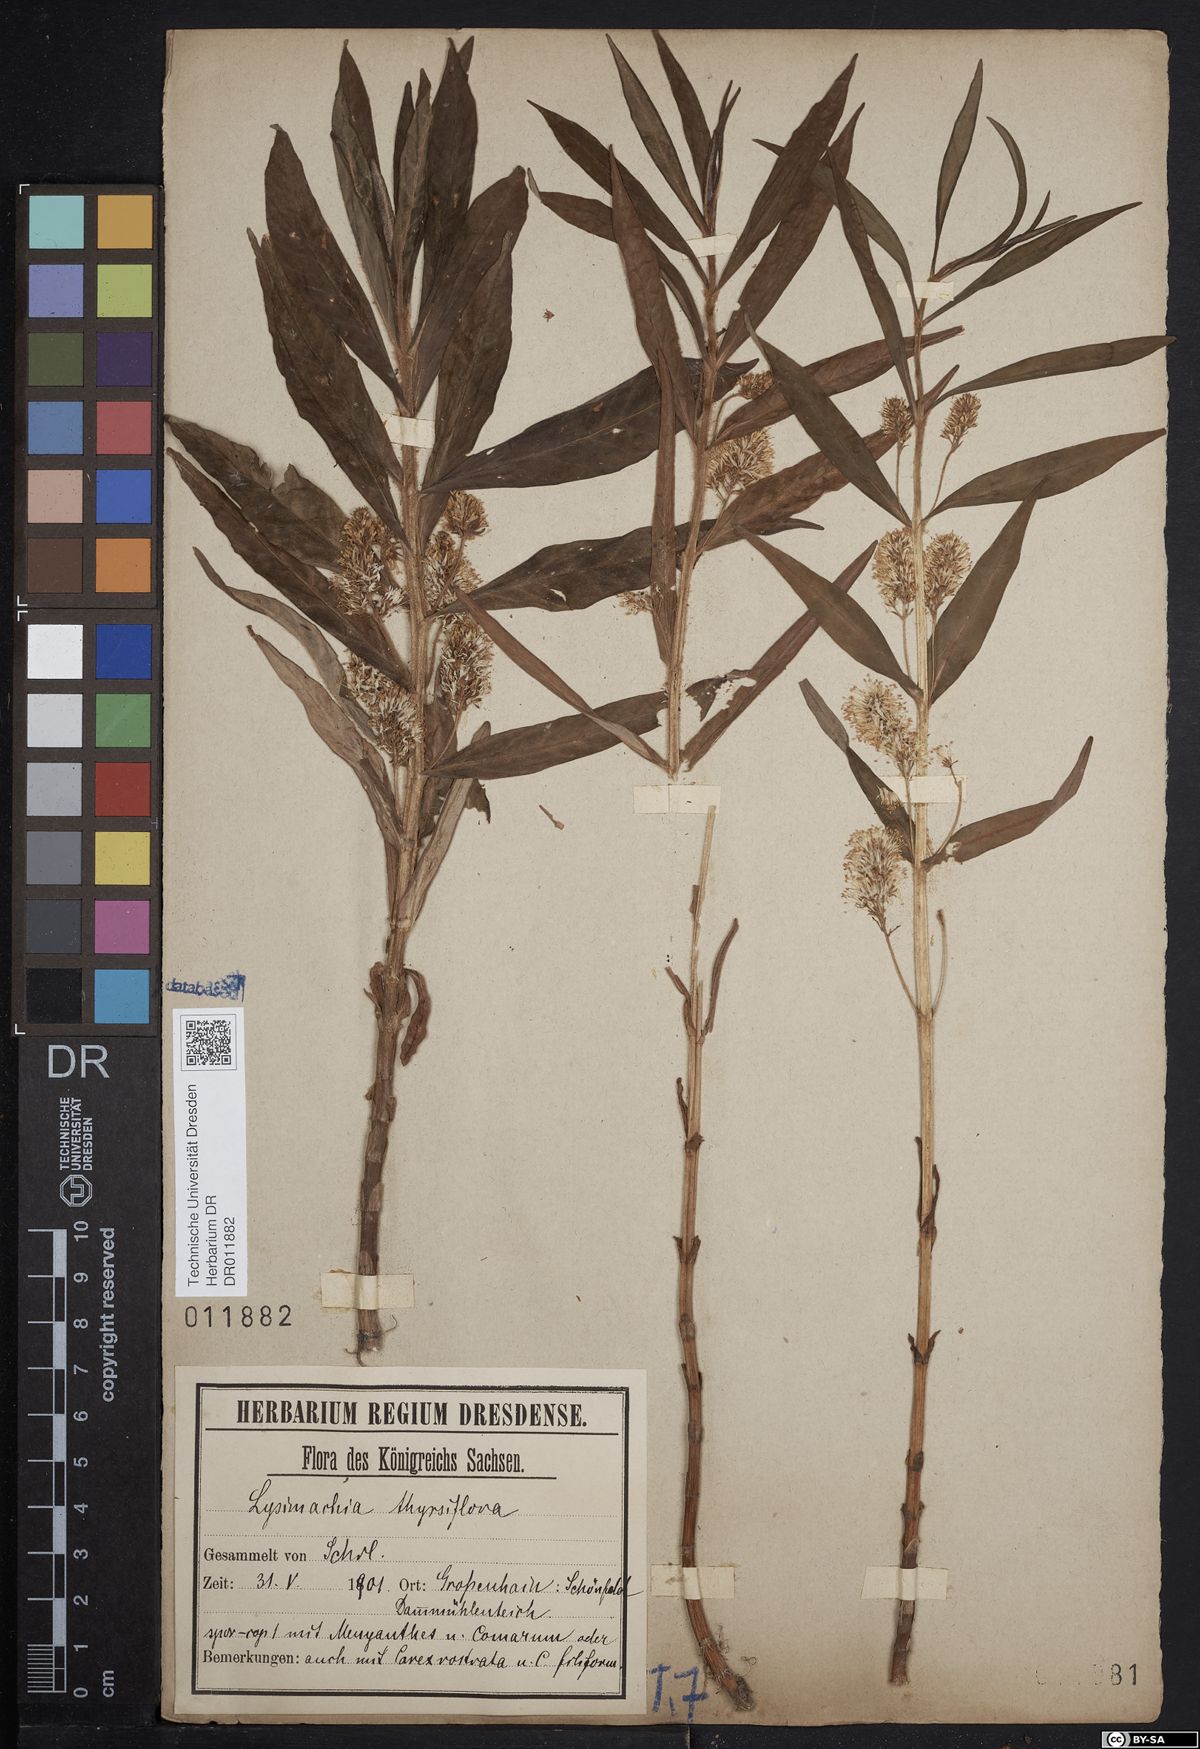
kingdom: Plantae
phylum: Tracheophyta
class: Magnoliopsida
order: Ericales
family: Primulaceae
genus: Lysimachia
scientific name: Lysimachia thyrsiflora
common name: Tufted loosestrife
